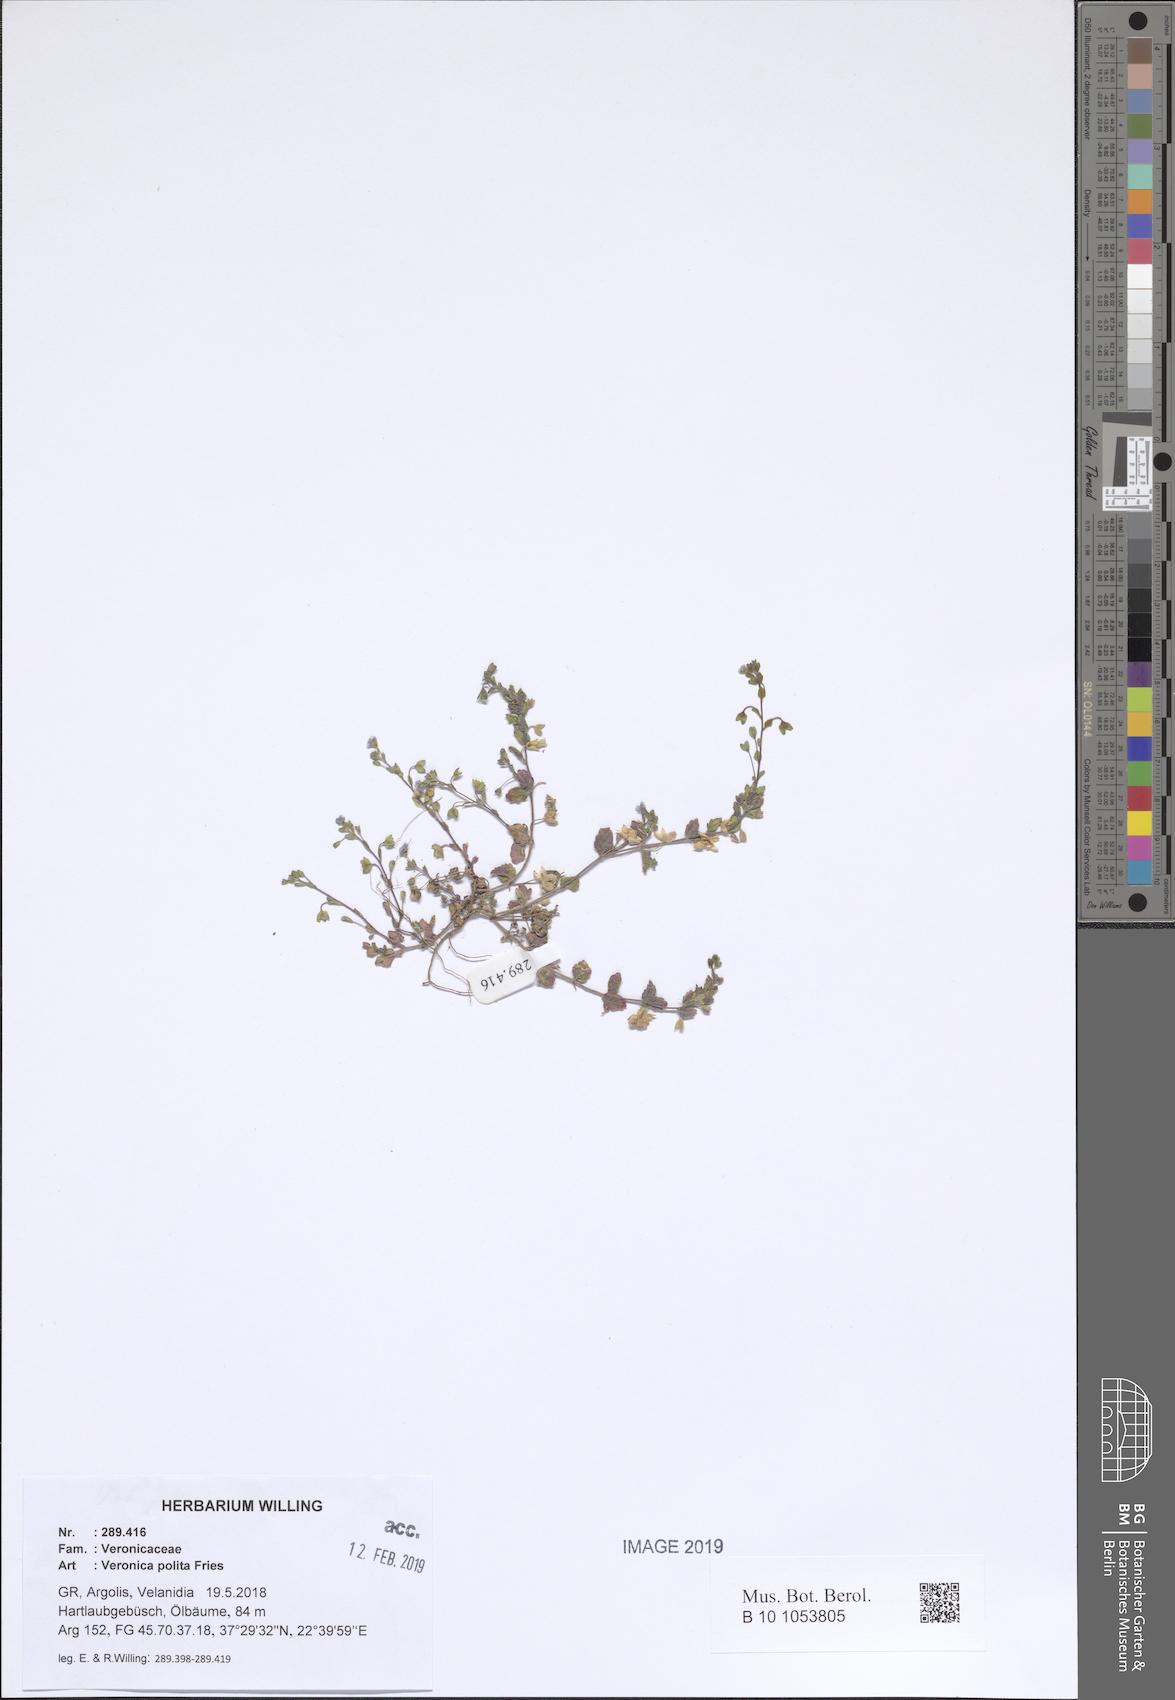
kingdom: Plantae
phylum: Tracheophyta
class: Magnoliopsida
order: Lamiales
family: Plantaginaceae
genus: Veronica
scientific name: Veronica polita
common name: Grey field-speedwell
